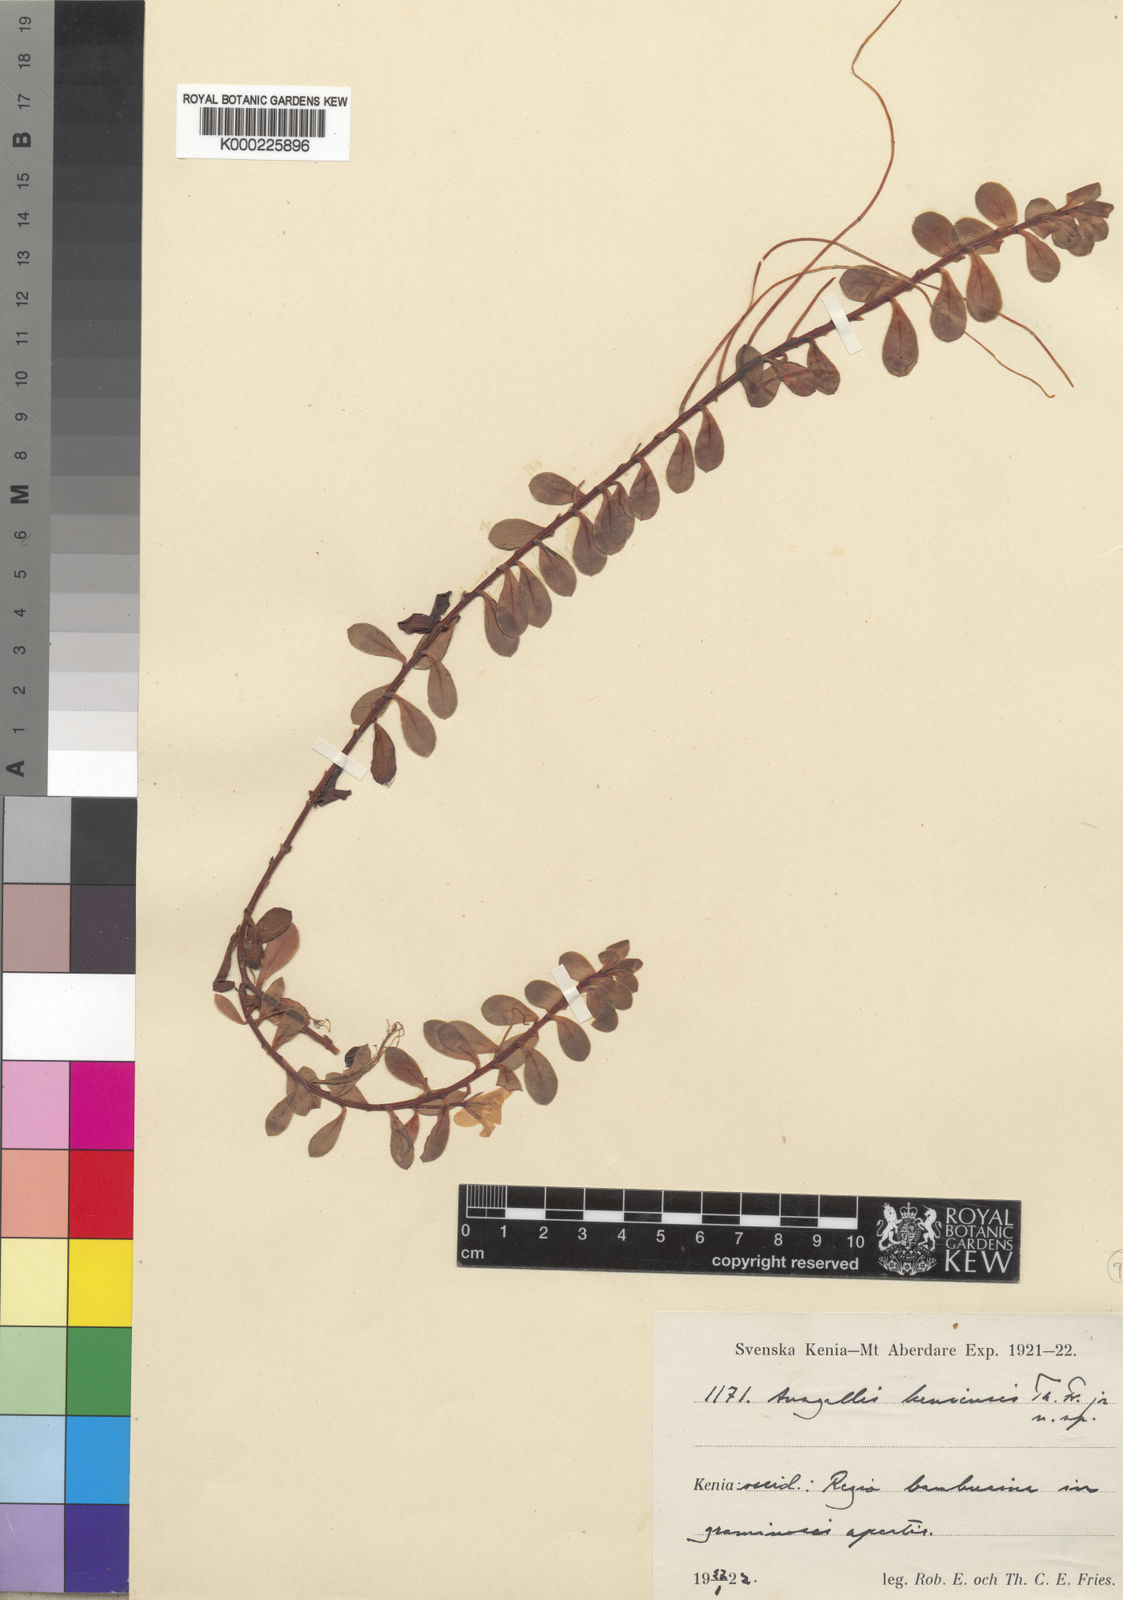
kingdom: Plantae
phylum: Tracheophyta
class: Magnoliopsida
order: Ericales
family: Primulaceae
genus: Lysimachia
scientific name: Lysimachia Anagallis spec
